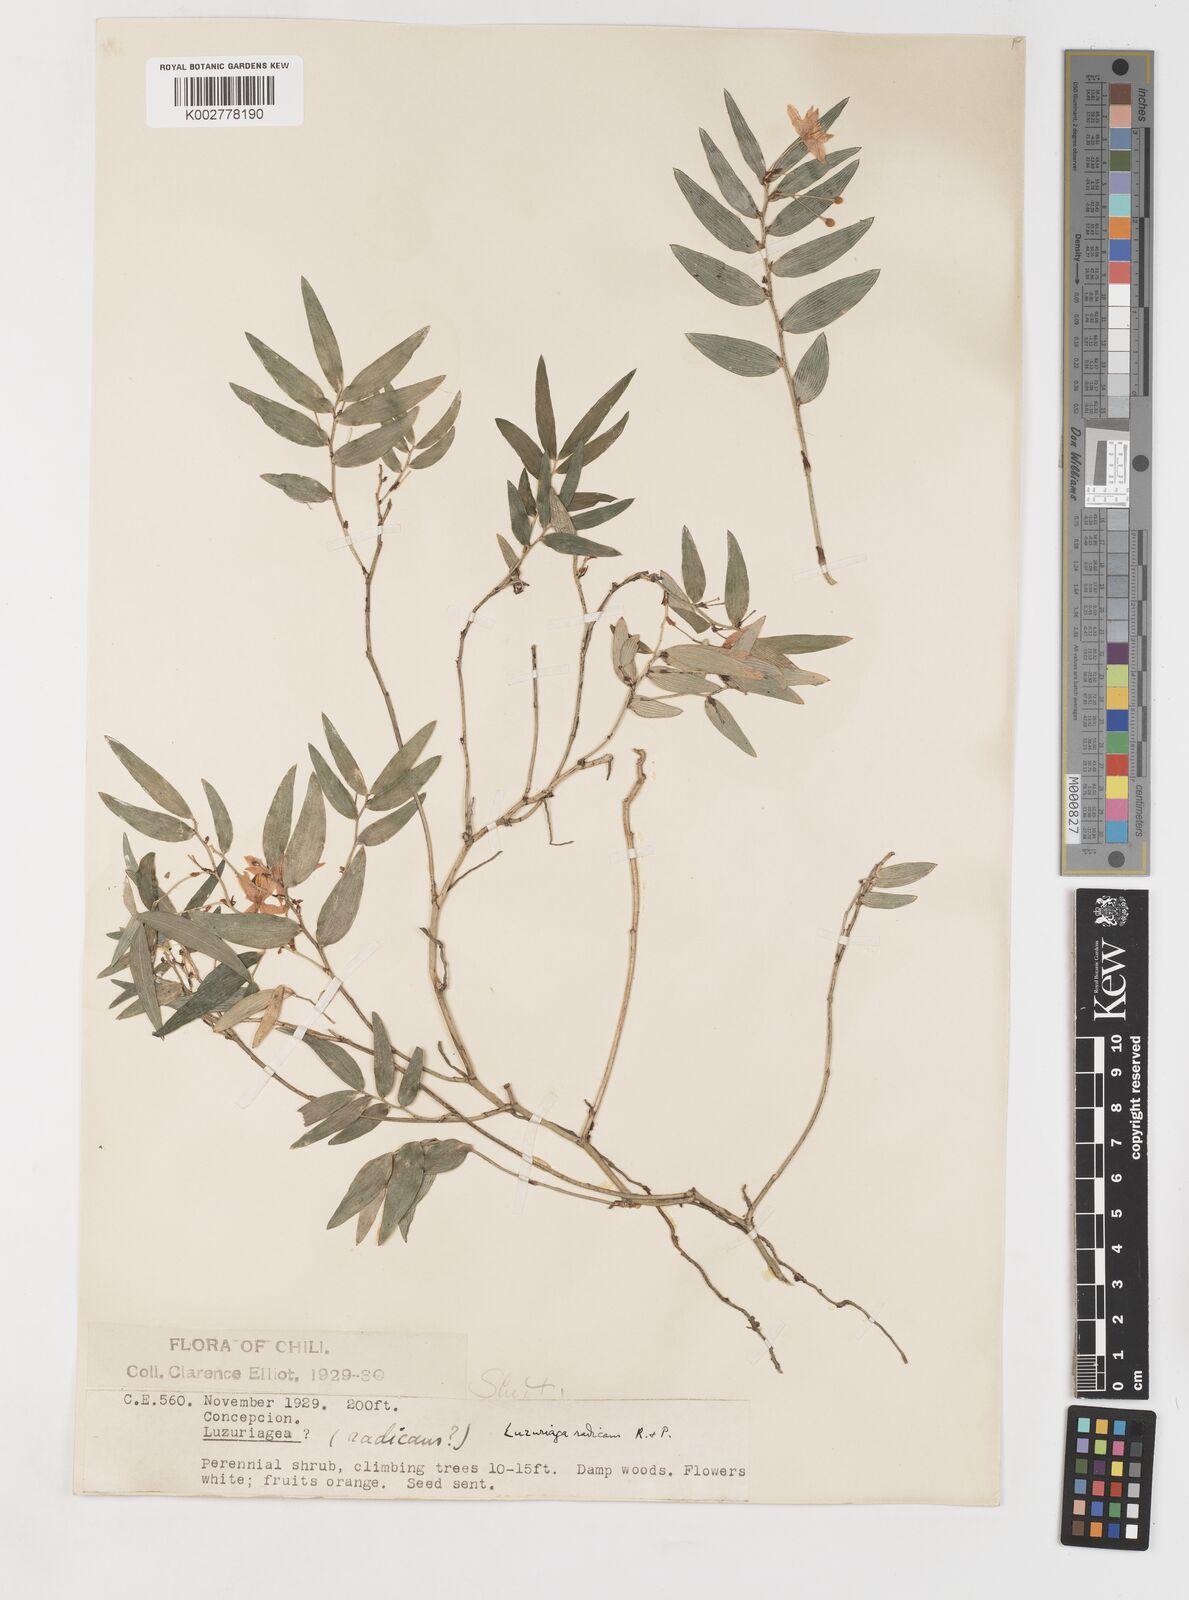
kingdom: Plantae
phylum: Tracheophyta
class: Liliopsida
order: Liliales
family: Alstroemeriaceae
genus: Luzuriaga
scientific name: Luzuriaga radicans
